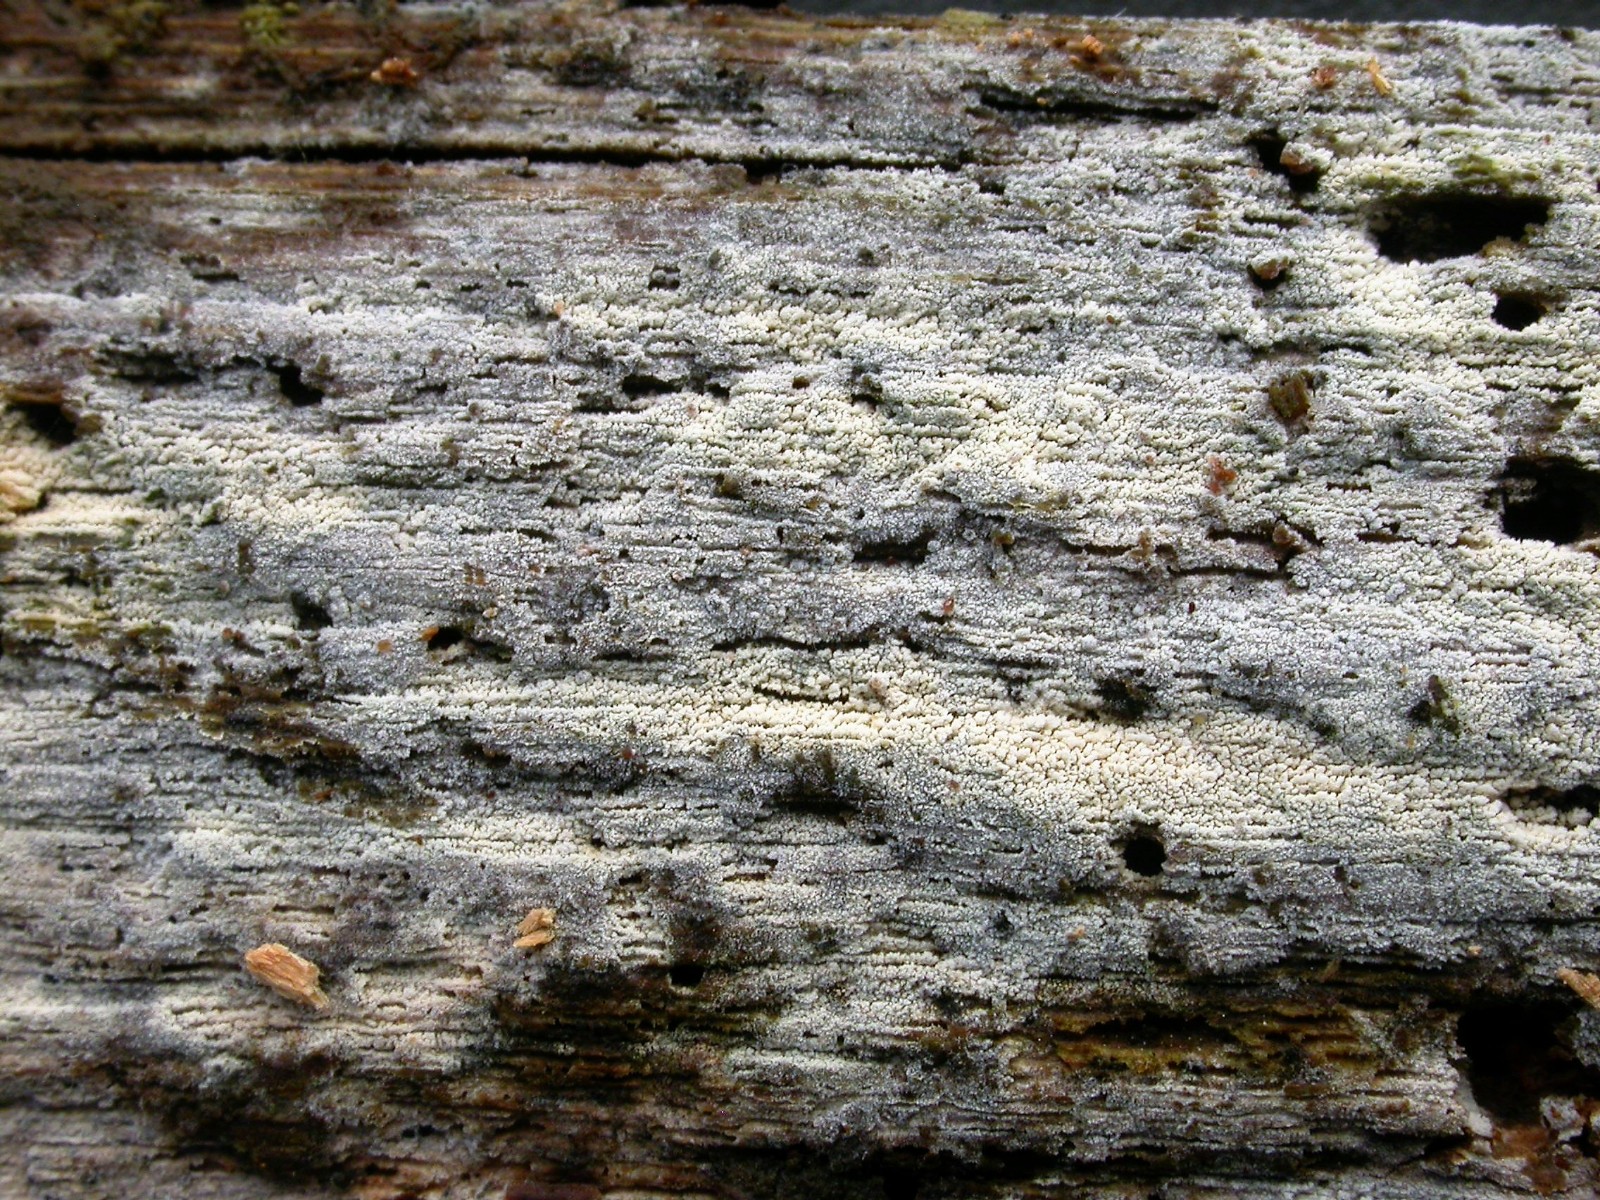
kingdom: Fungi
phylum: Basidiomycota
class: Agaricomycetes
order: Trechisporales
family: Sistotremataceae
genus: Trechispora
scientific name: Trechispora farinacea
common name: pigget vathinde
